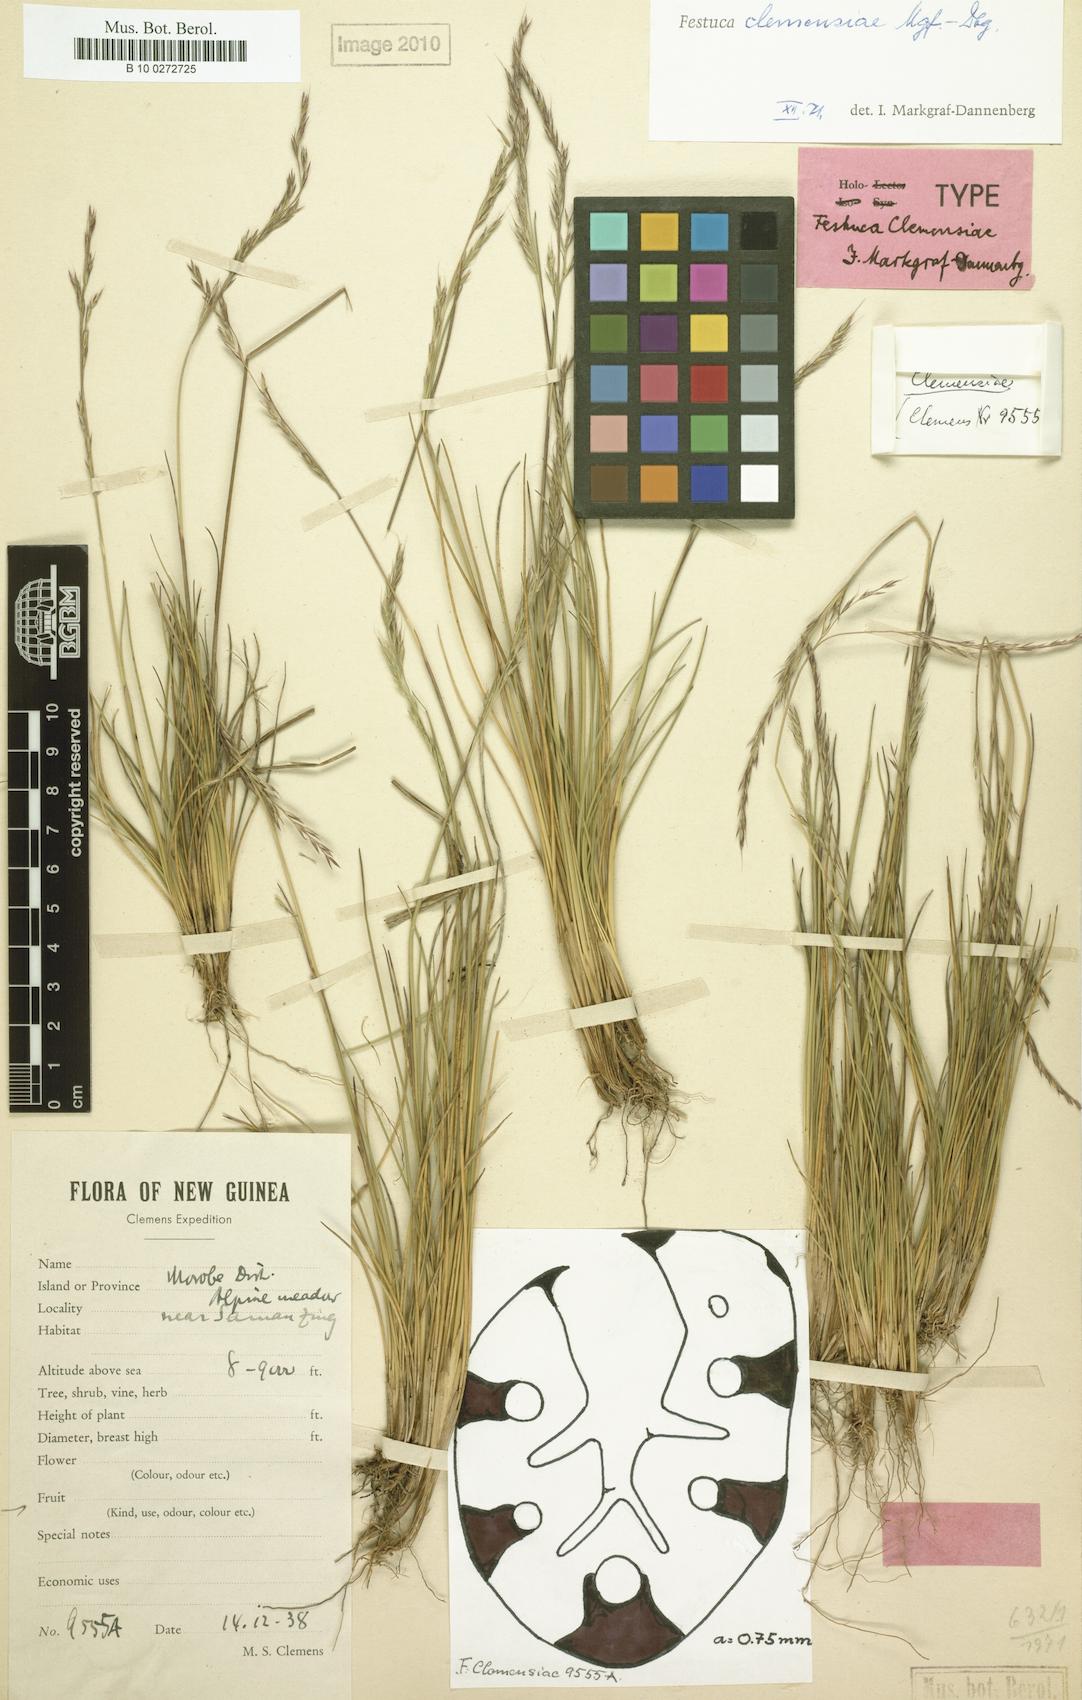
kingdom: Plantae
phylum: Tracheophyta
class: Liliopsida
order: Poales
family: Poaceae
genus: Festuca
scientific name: Festuca
